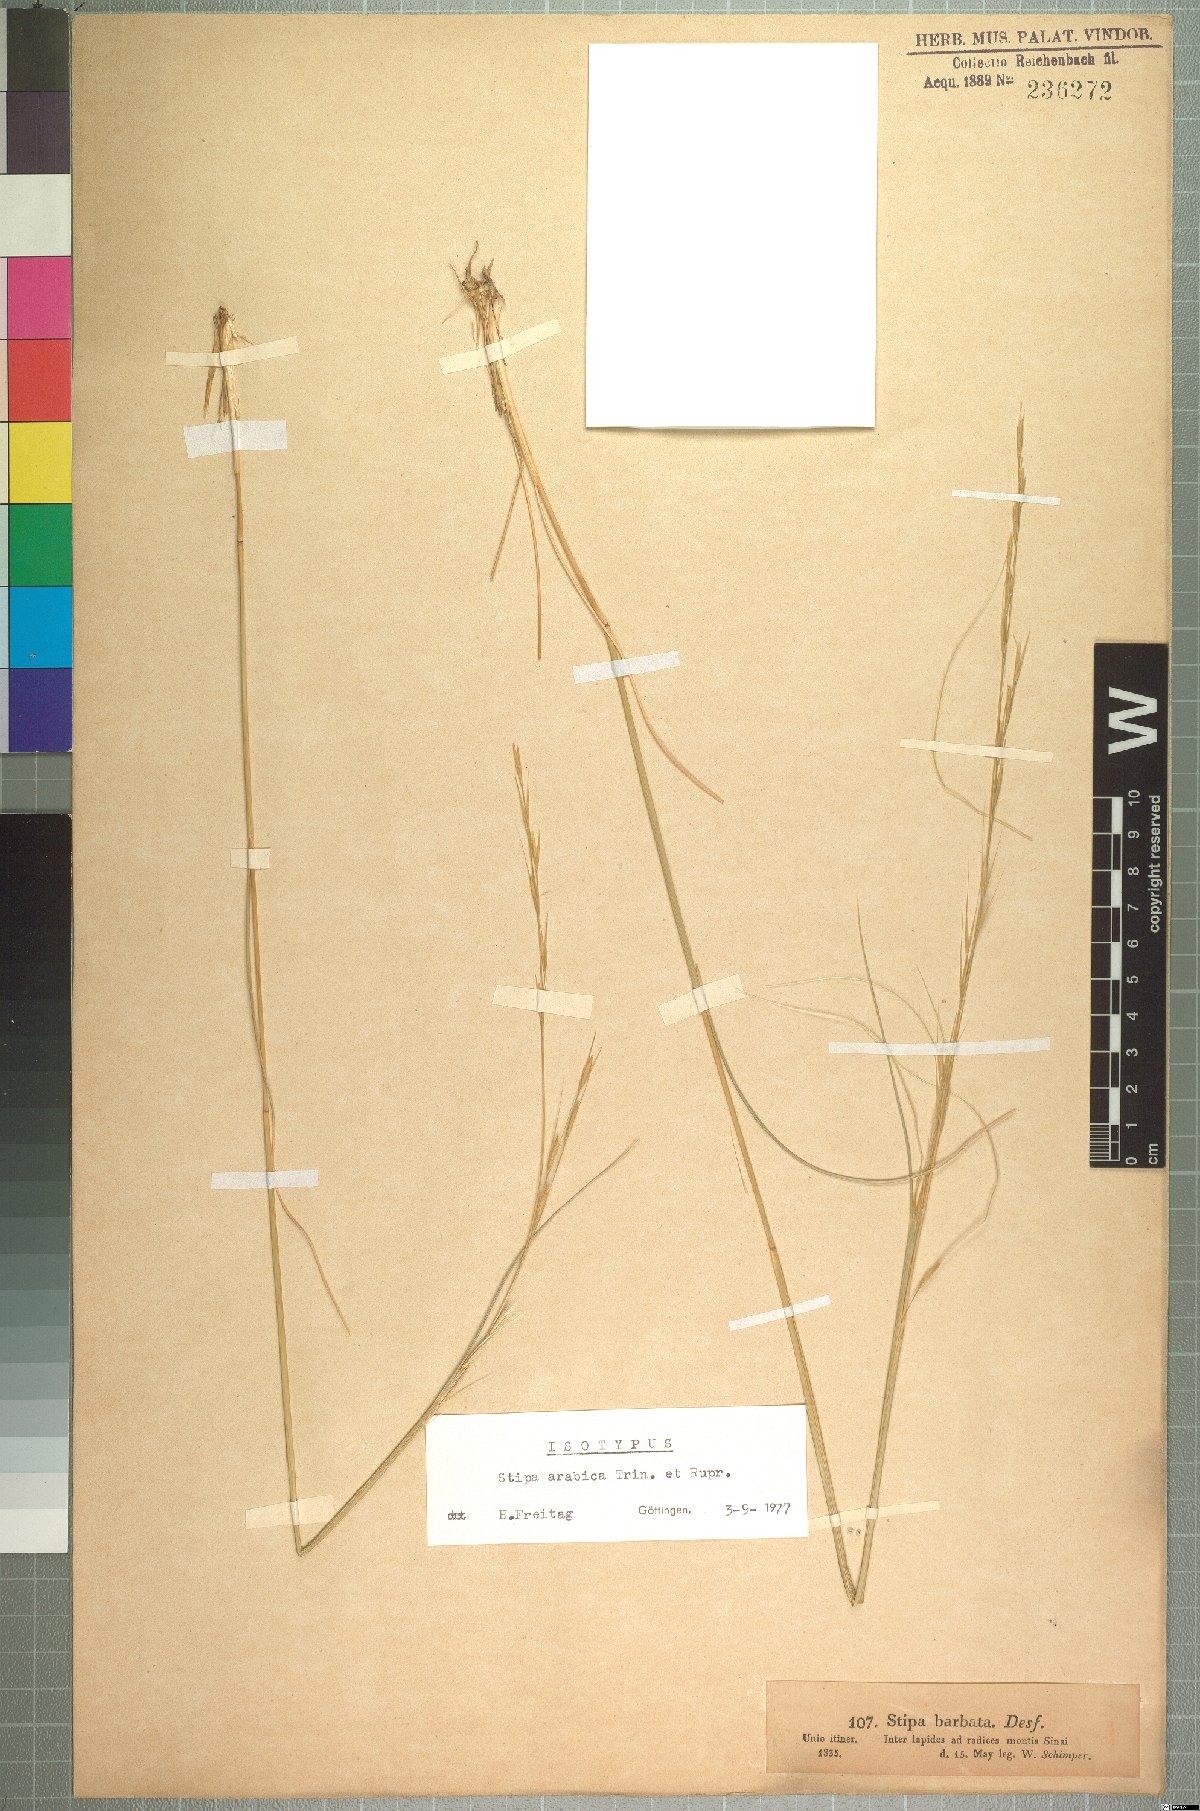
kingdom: Plantae
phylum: Tracheophyta
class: Liliopsida
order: Poales
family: Poaceae
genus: Stipa
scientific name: Stipa arabica
